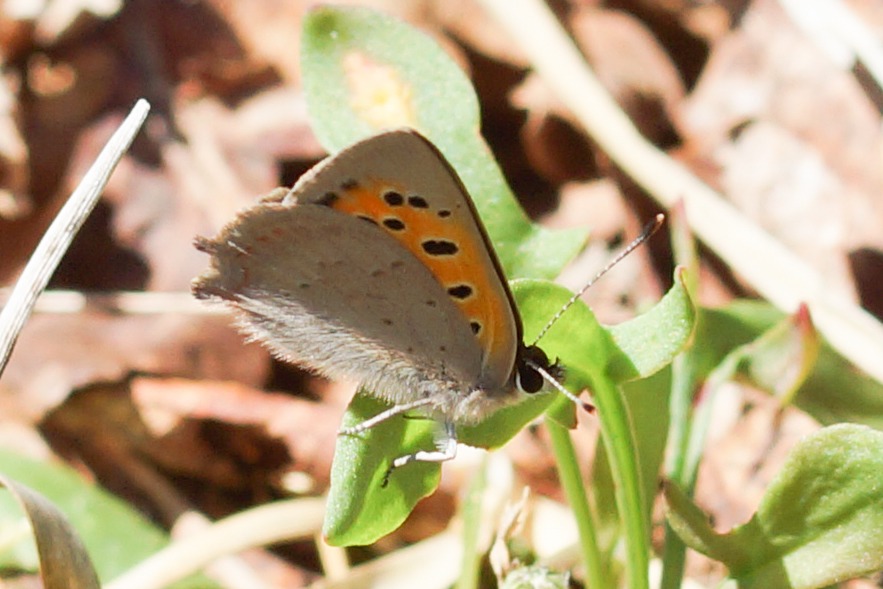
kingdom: Animalia
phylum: Arthropoda
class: Insecta
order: Lepidoptera
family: Lycaenidae
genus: Lycaena
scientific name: Lycaena phlaeas
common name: Lille ildfugl
